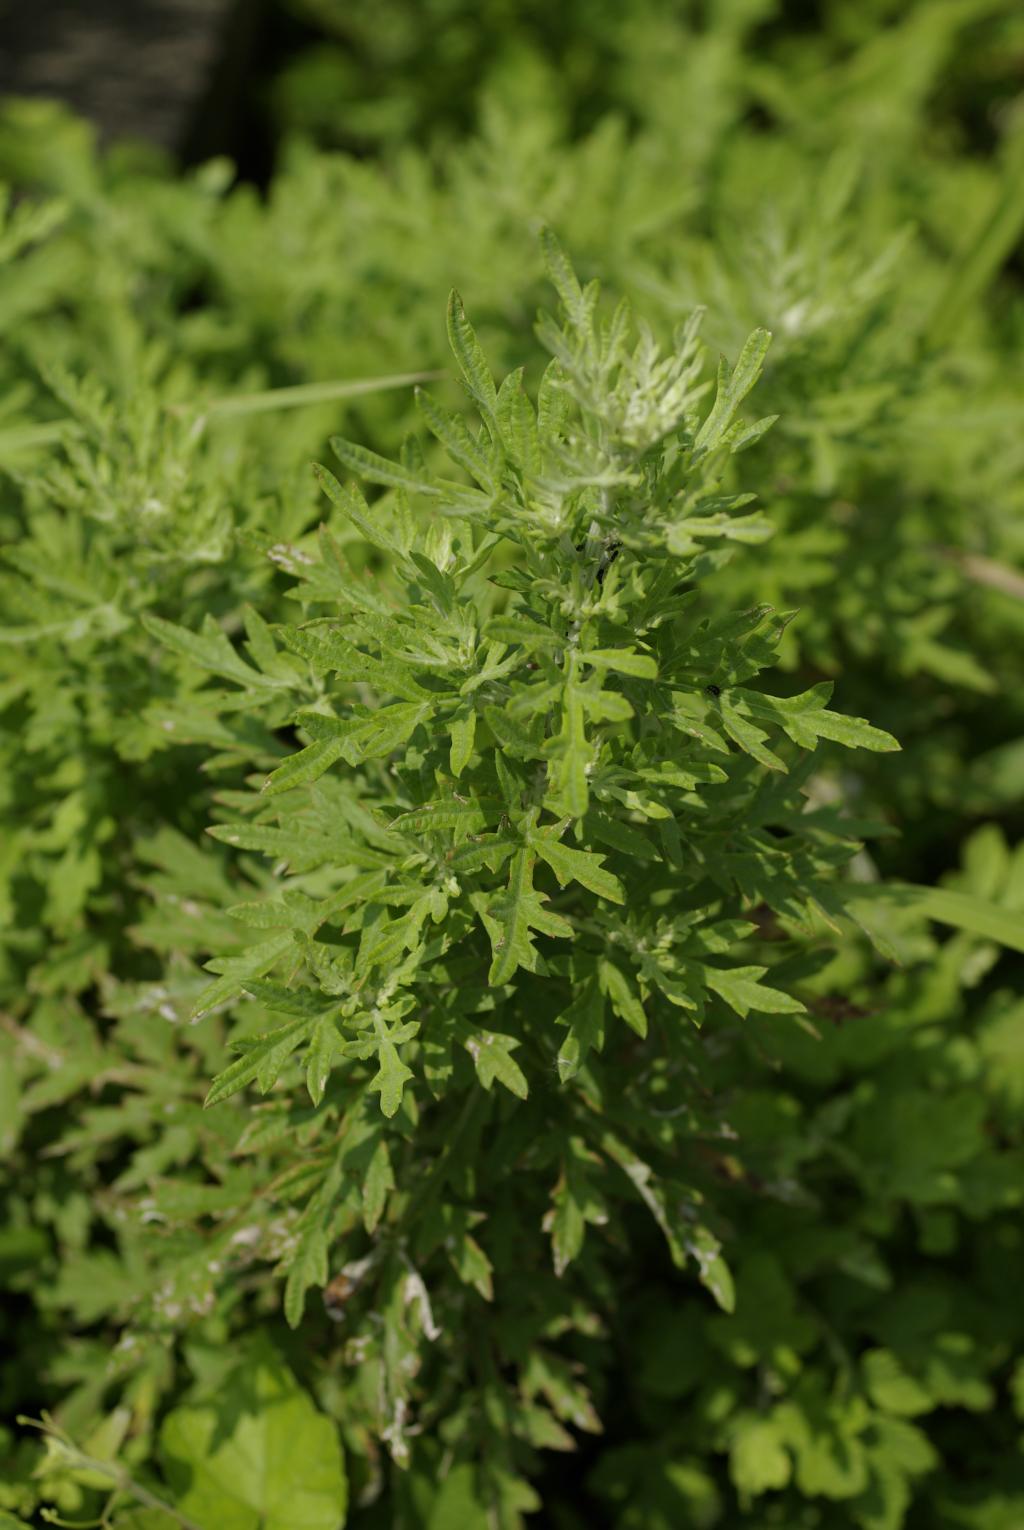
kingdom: Plantae
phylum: Tracheophyta
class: Magnoliopsida
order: Asterales
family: Asteraceae
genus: Artemisia
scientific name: Artemisia indica
